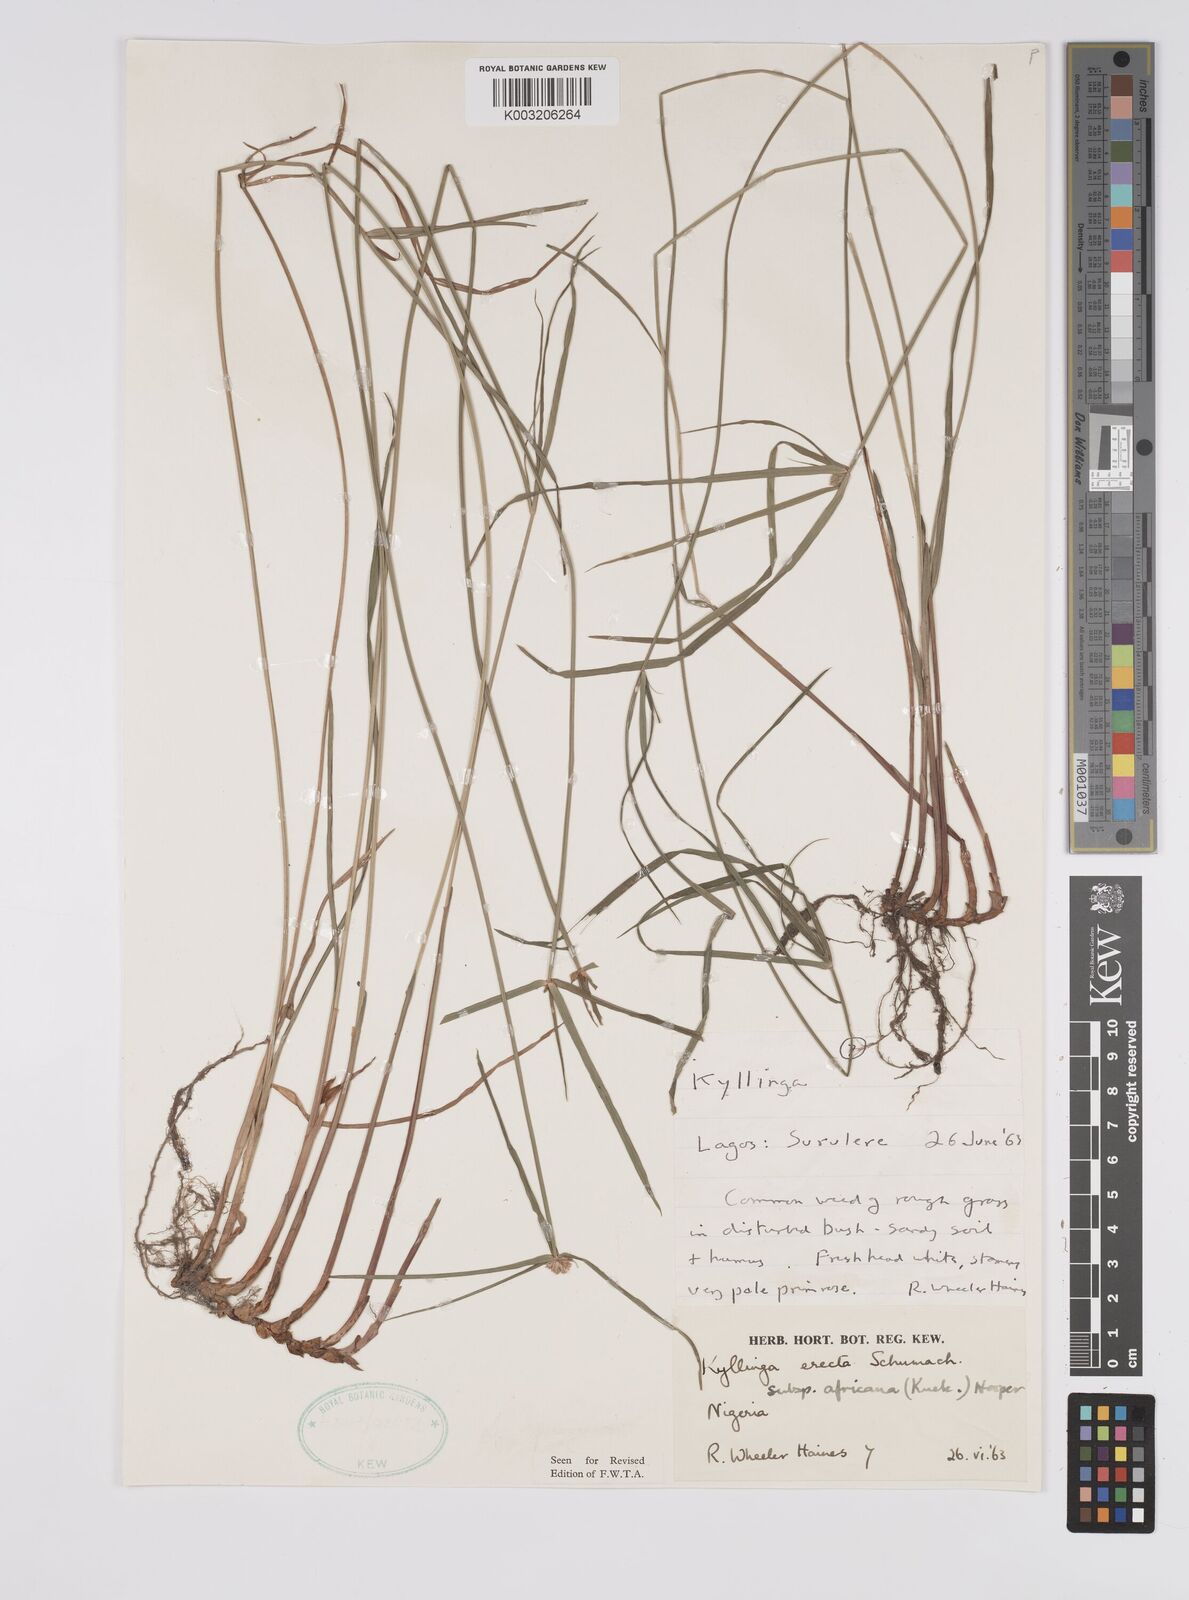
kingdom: Plantae
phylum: Tracheophyta
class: Liliopsida
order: Poales
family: Cyperaceae
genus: Cyperus
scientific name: Cyperus
